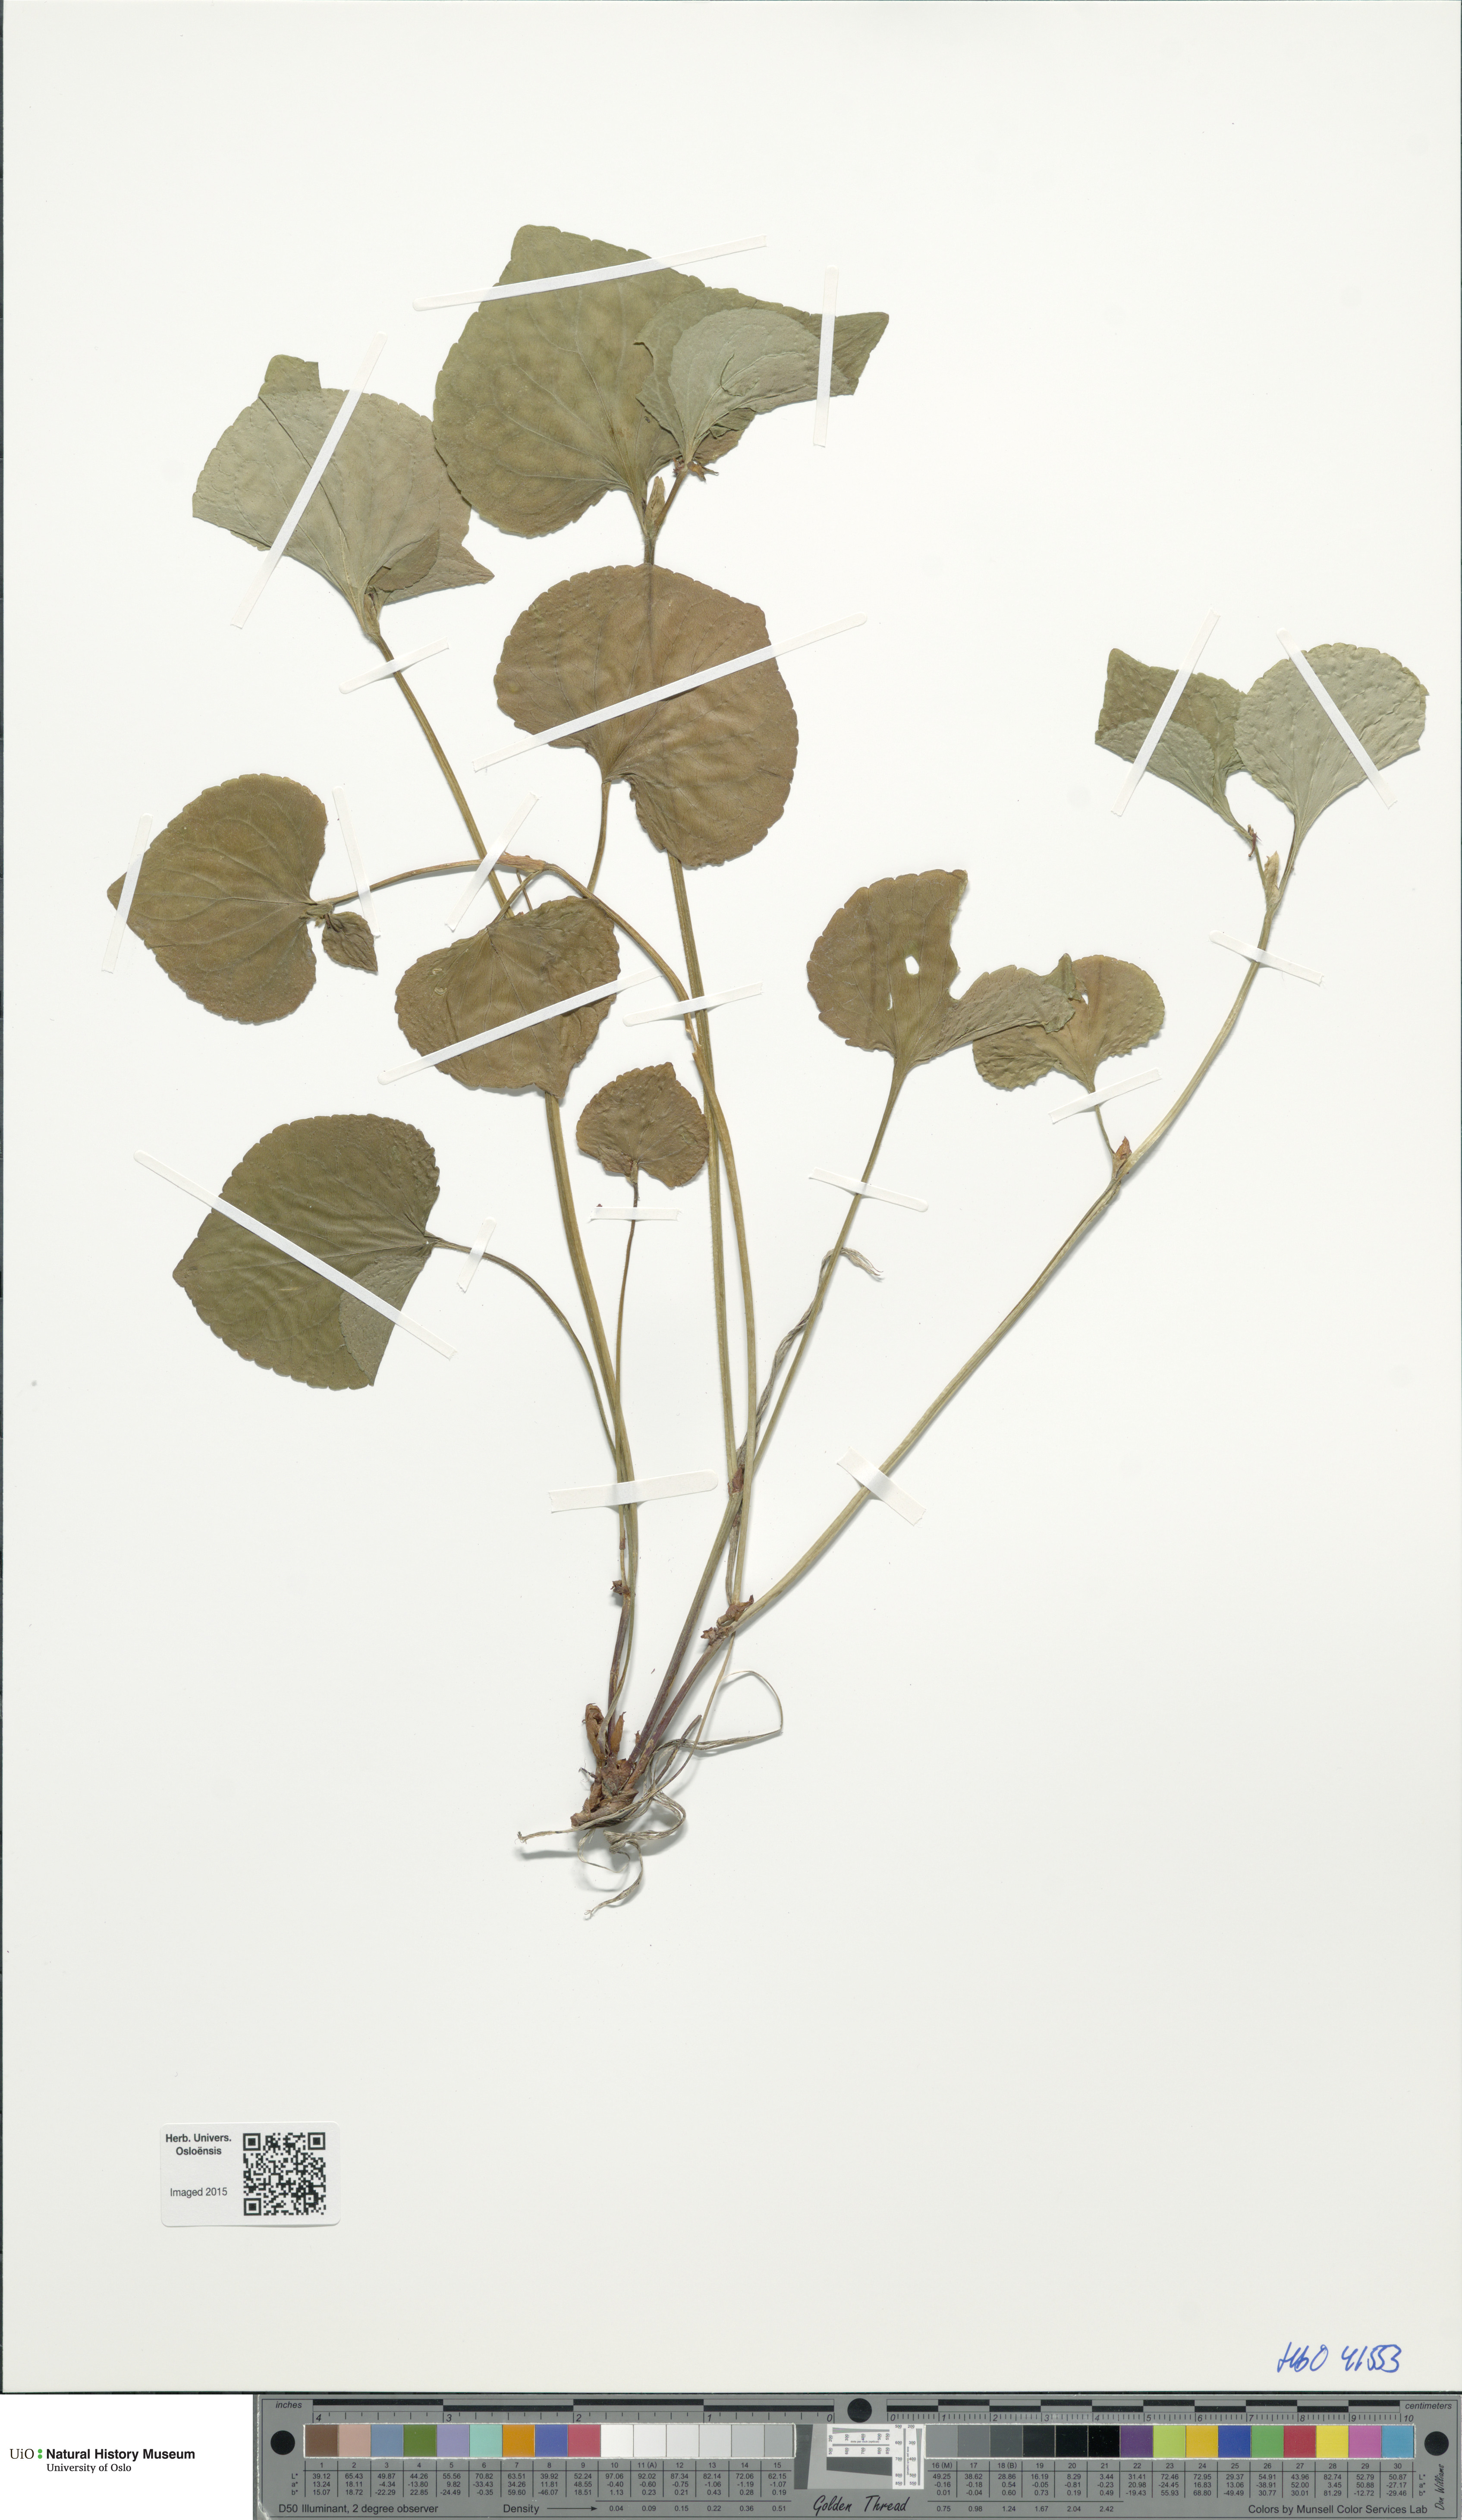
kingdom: Plantae
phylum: Tracheophyta
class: Magnoliopsida
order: Malpighiales
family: Violaceae
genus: Viola
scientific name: Viola mirabilis
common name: Wonder violet
